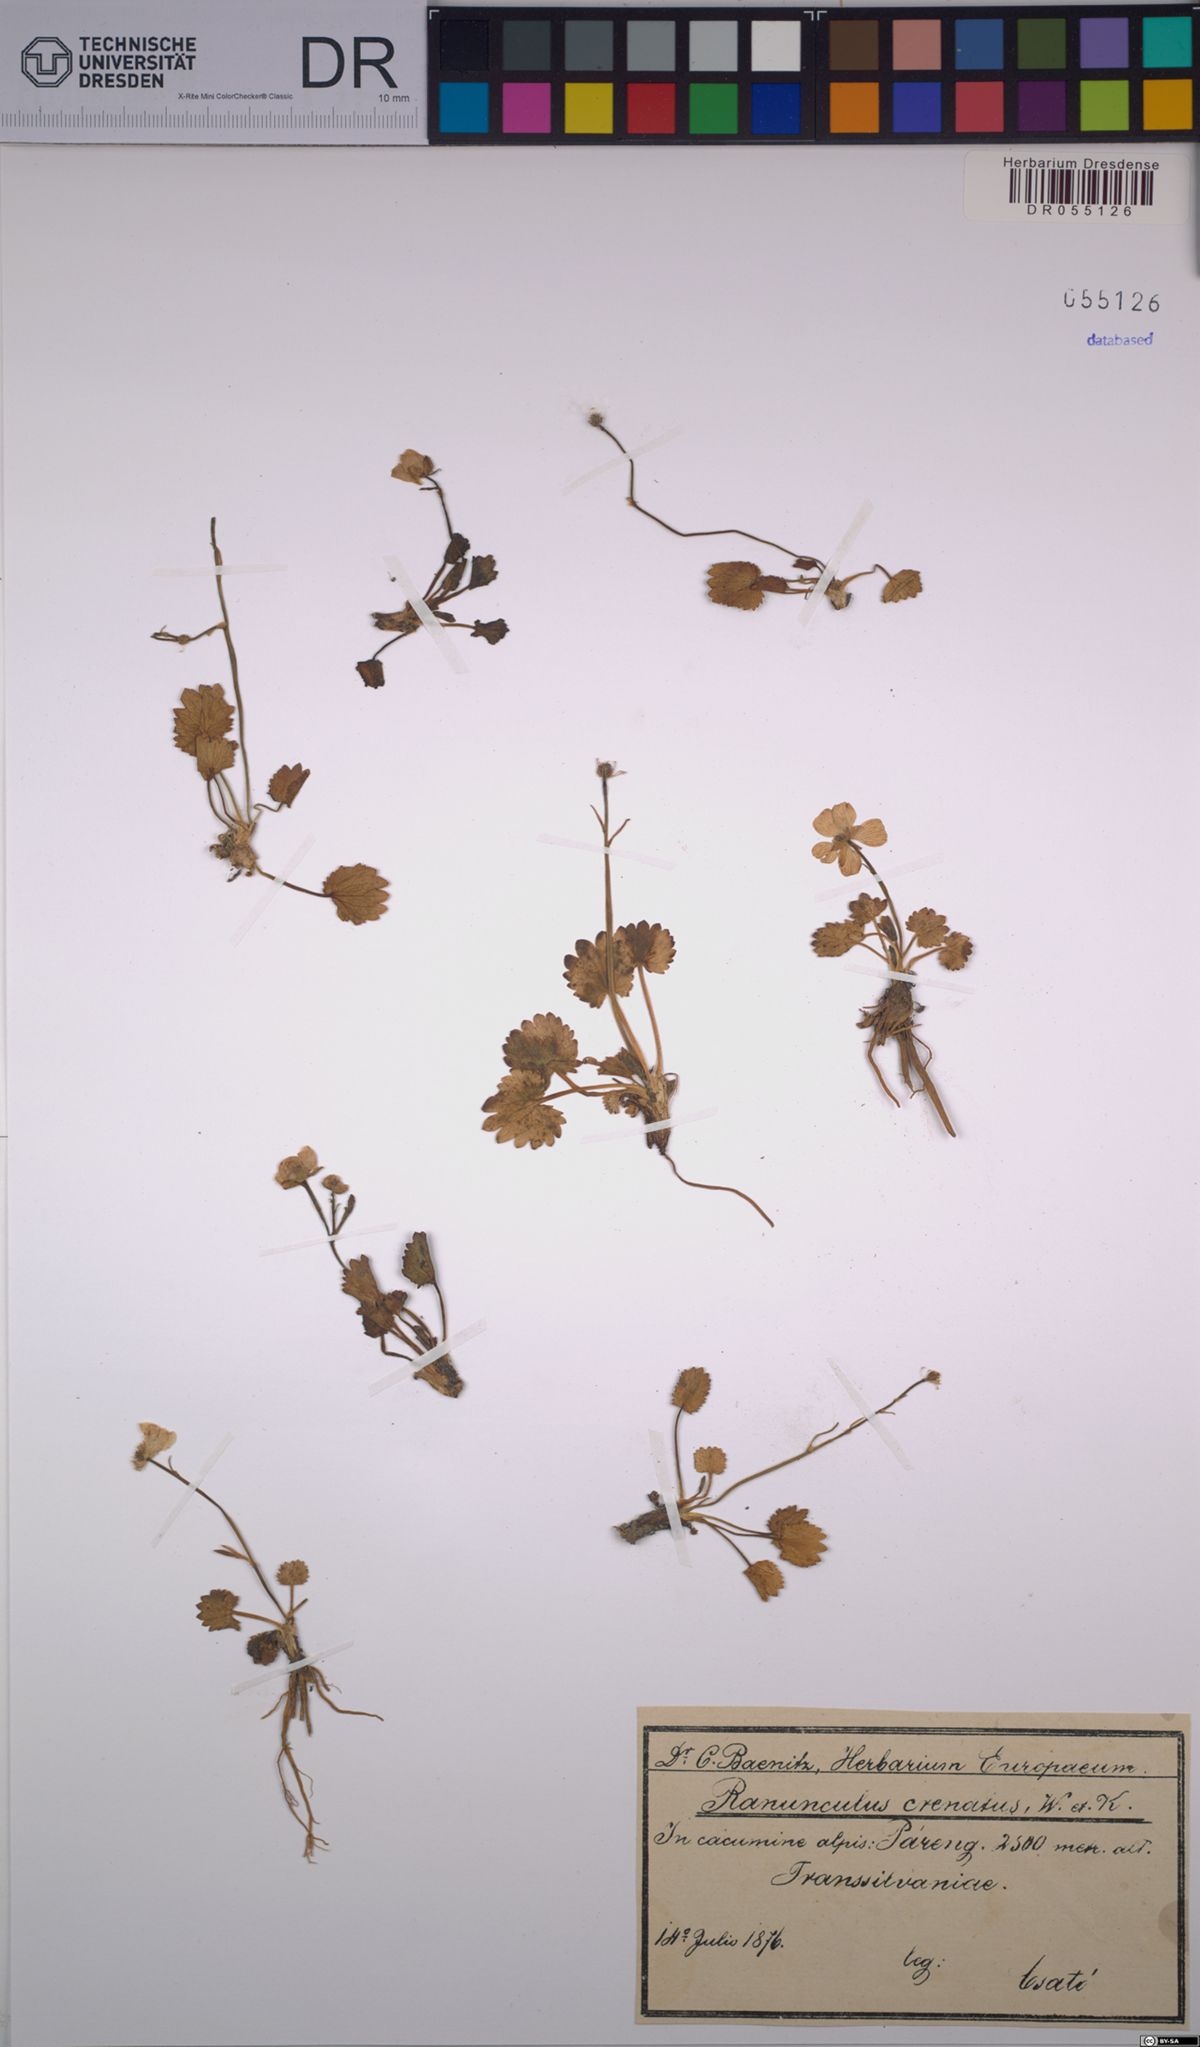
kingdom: Plantae
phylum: Tracheophyta
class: Magnoliopsida
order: Ranunculales
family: Ranunculaceae
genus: Ranunculus
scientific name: Ranunculus crenatus
